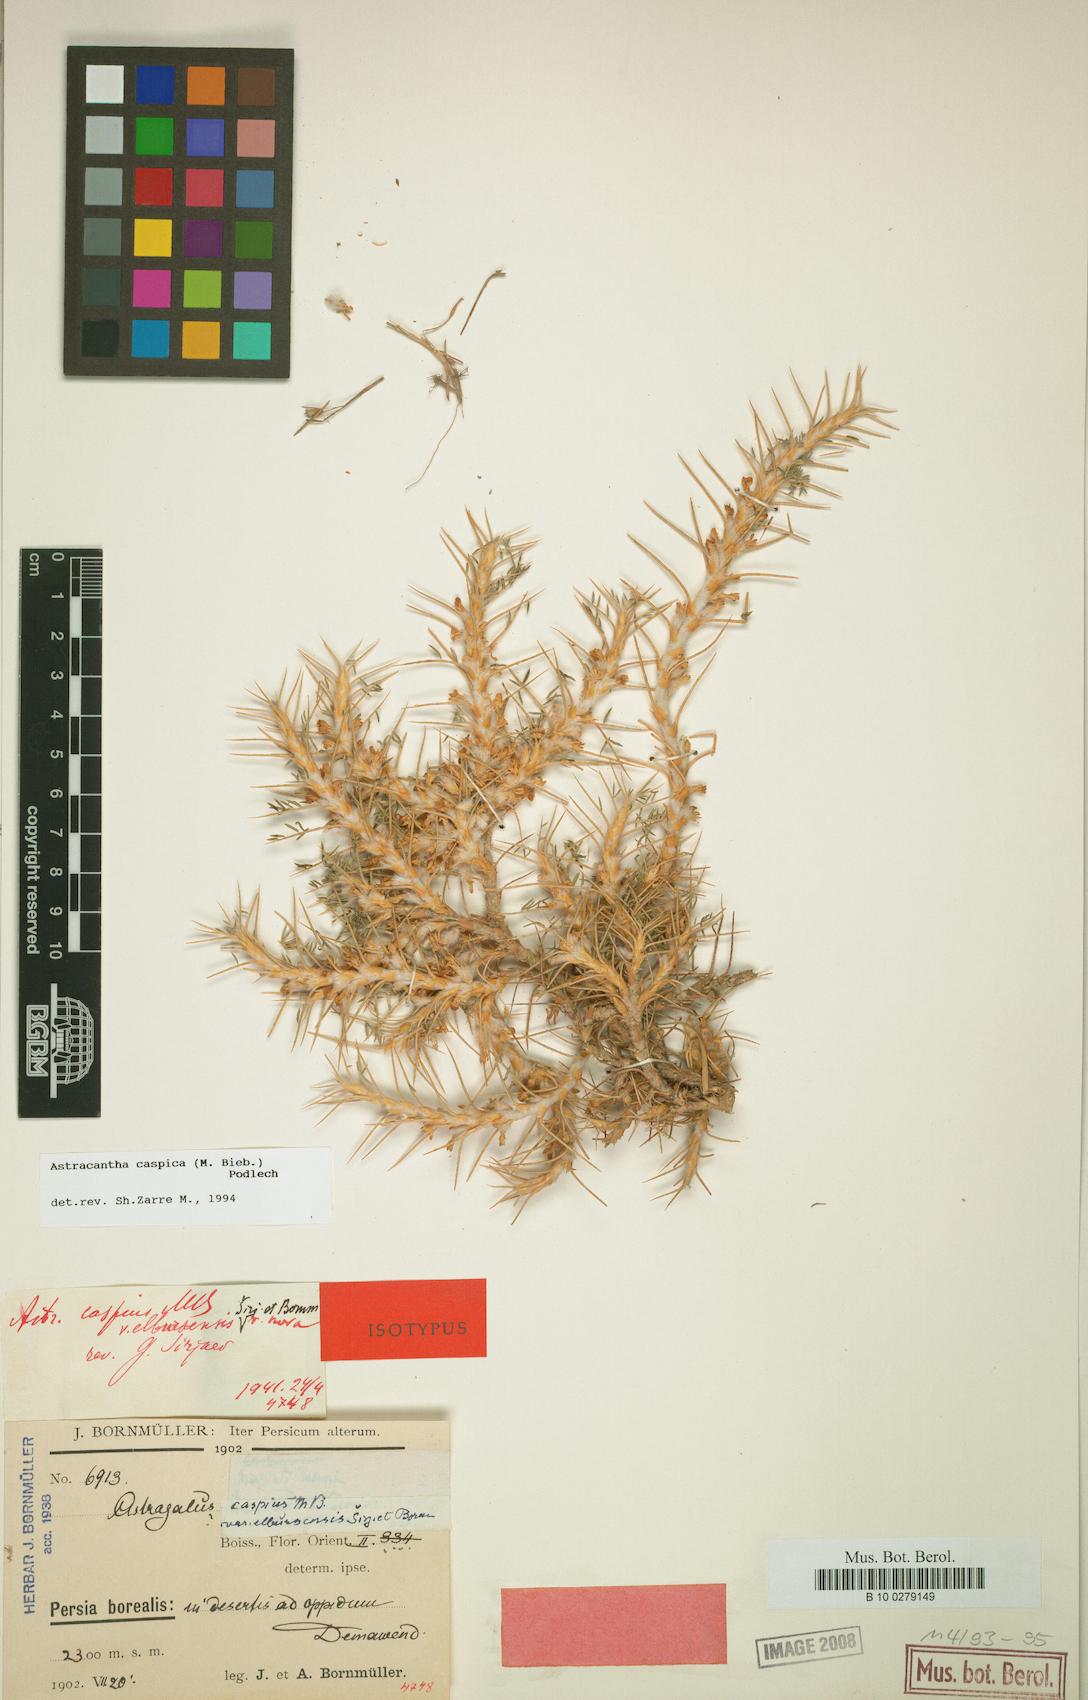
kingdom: Plantae
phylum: Tracheophyta
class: Magnoliopsida
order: Fabales
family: Fabaceae
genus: Astragalus
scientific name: Astragalus caspicus
